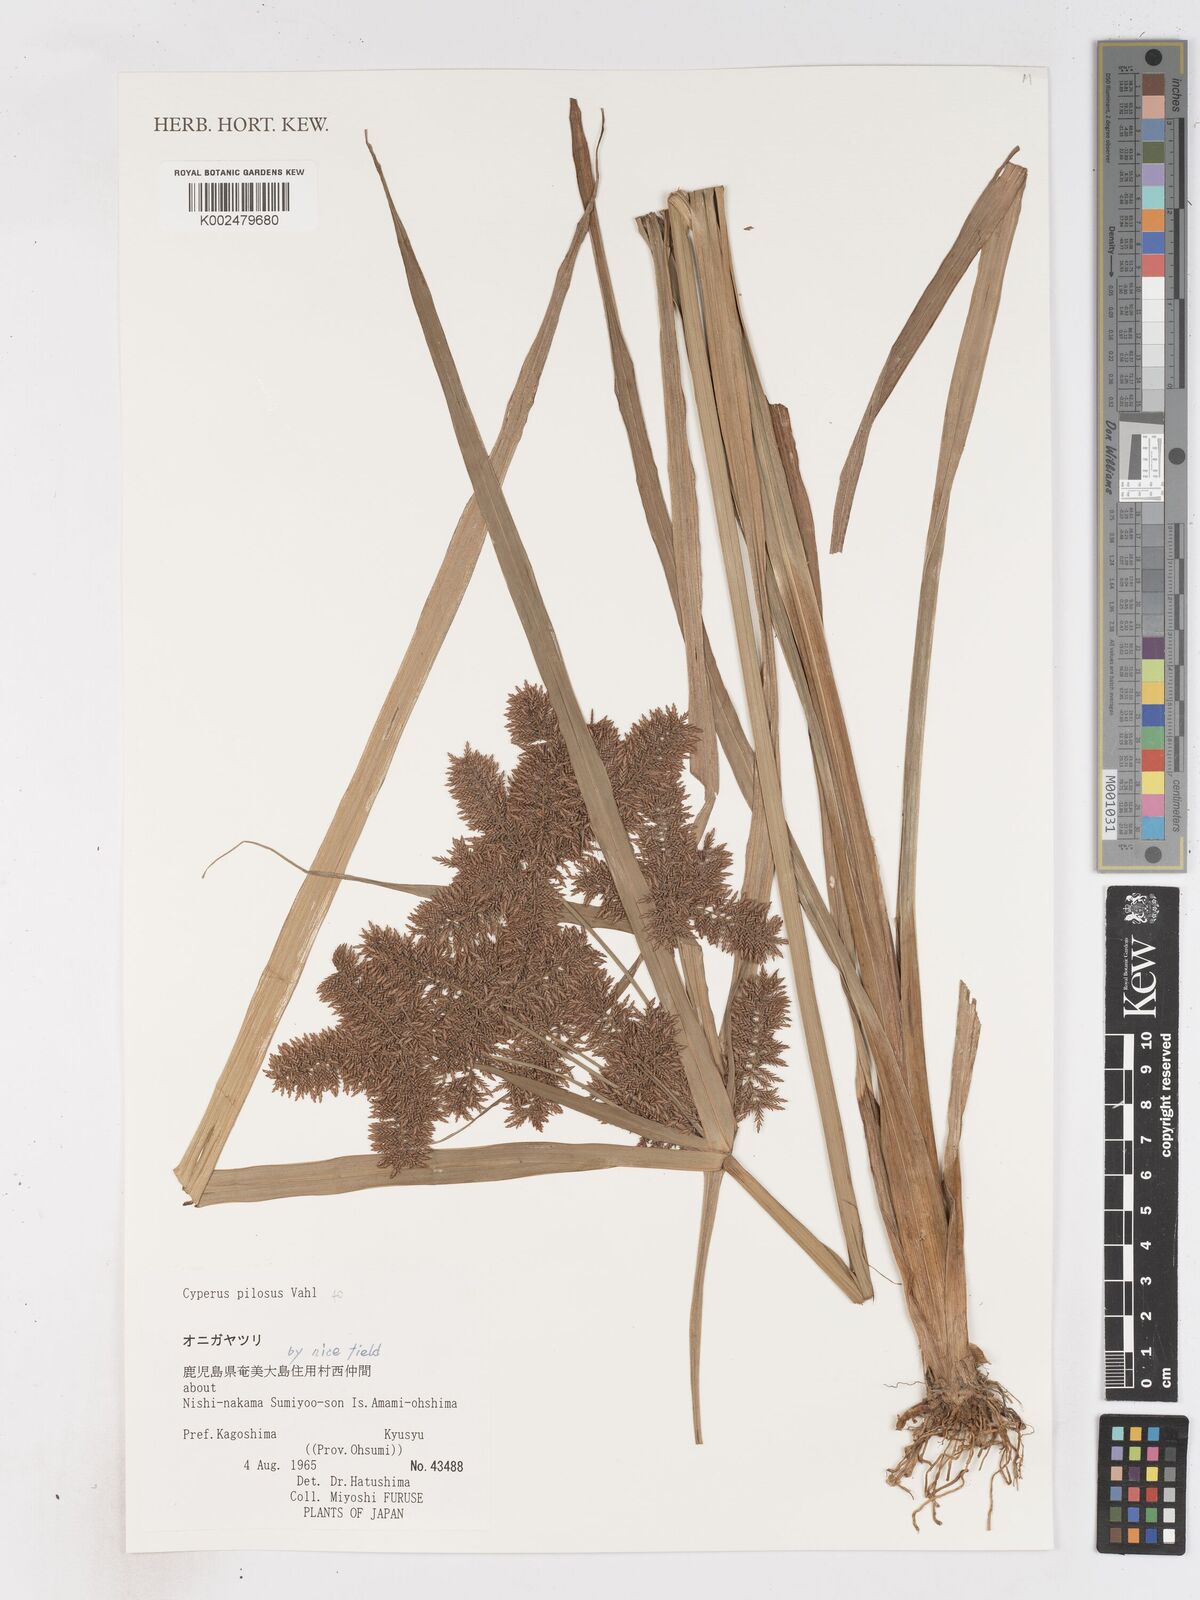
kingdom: Plantae
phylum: Tracheophyta
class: Liliopsida
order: Poales
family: Cyperaceae
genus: Cyperus
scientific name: Cyperus pilosus
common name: Fuzzy flatsedge
